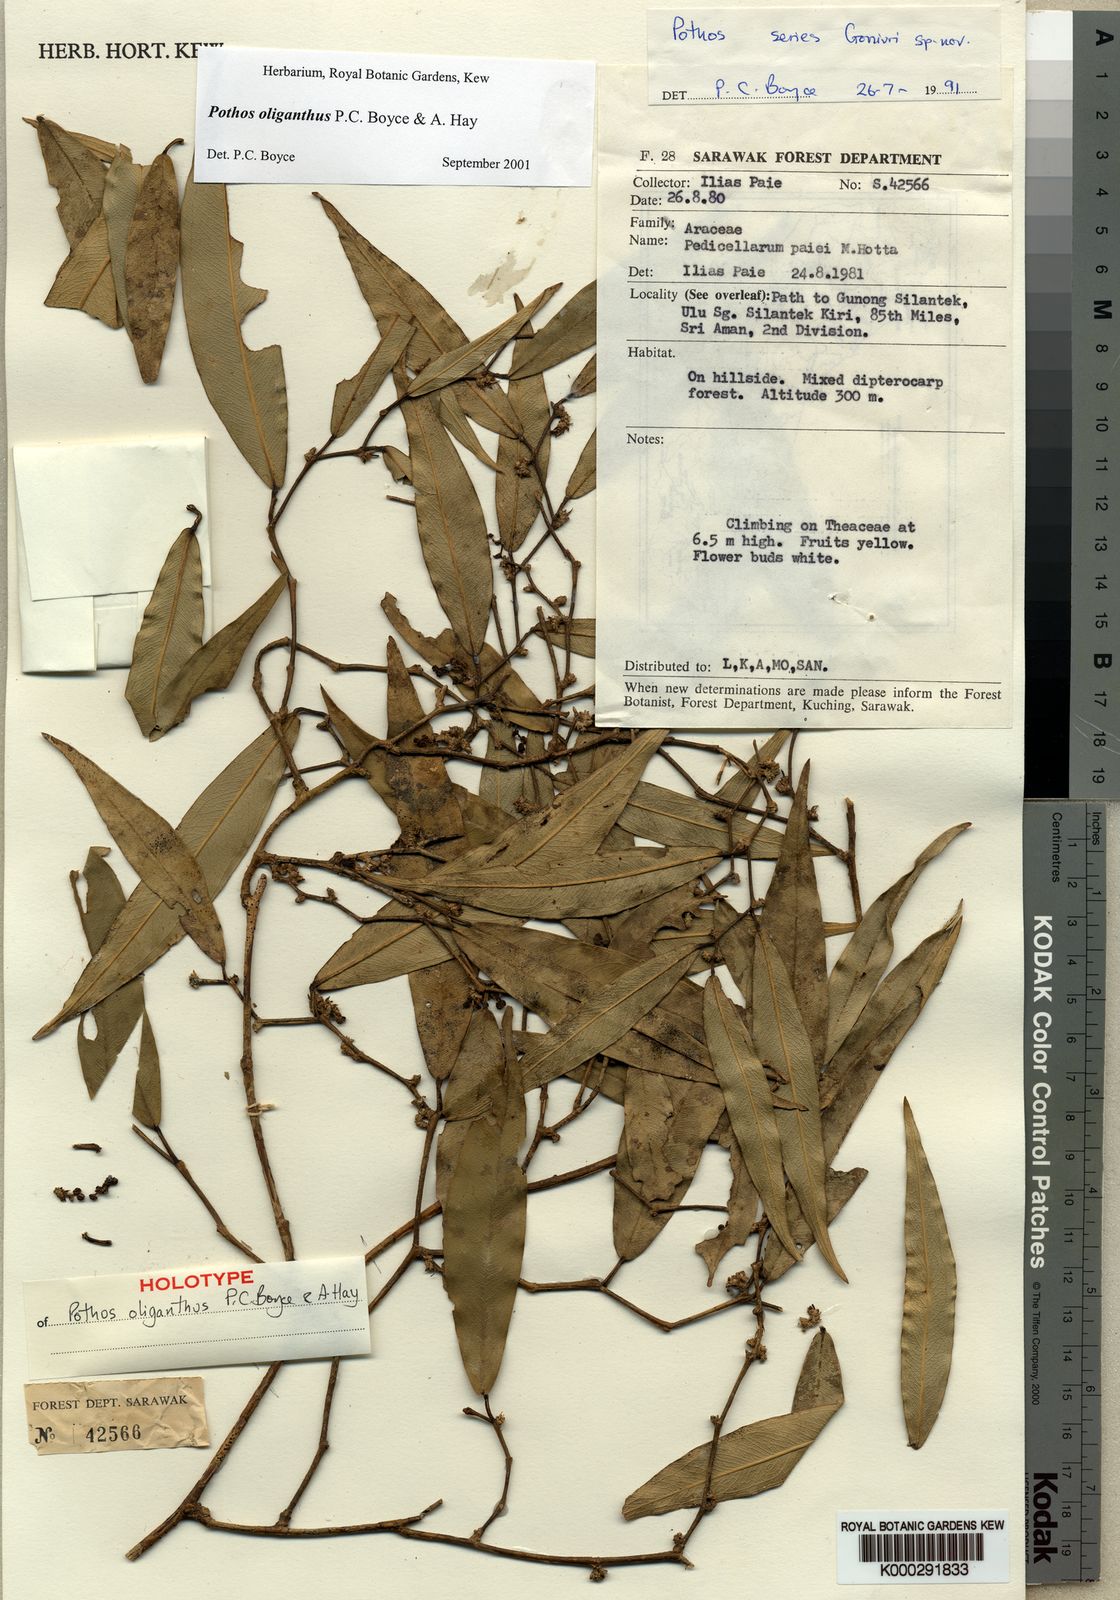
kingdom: Plantae
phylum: Tracheophyta
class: Liliopsida
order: Alismatales
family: Araceae
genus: Pothos
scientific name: Pothos oliganthus
